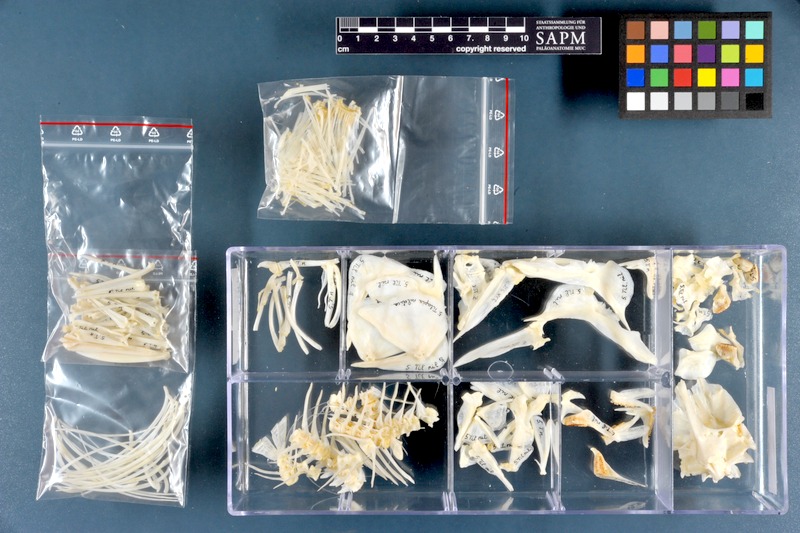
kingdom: Animalia
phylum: Chordata
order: Perciformes
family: Cichlidae
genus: Oreochromis
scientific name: Oreochromis niloticus
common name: Nile tilapia
